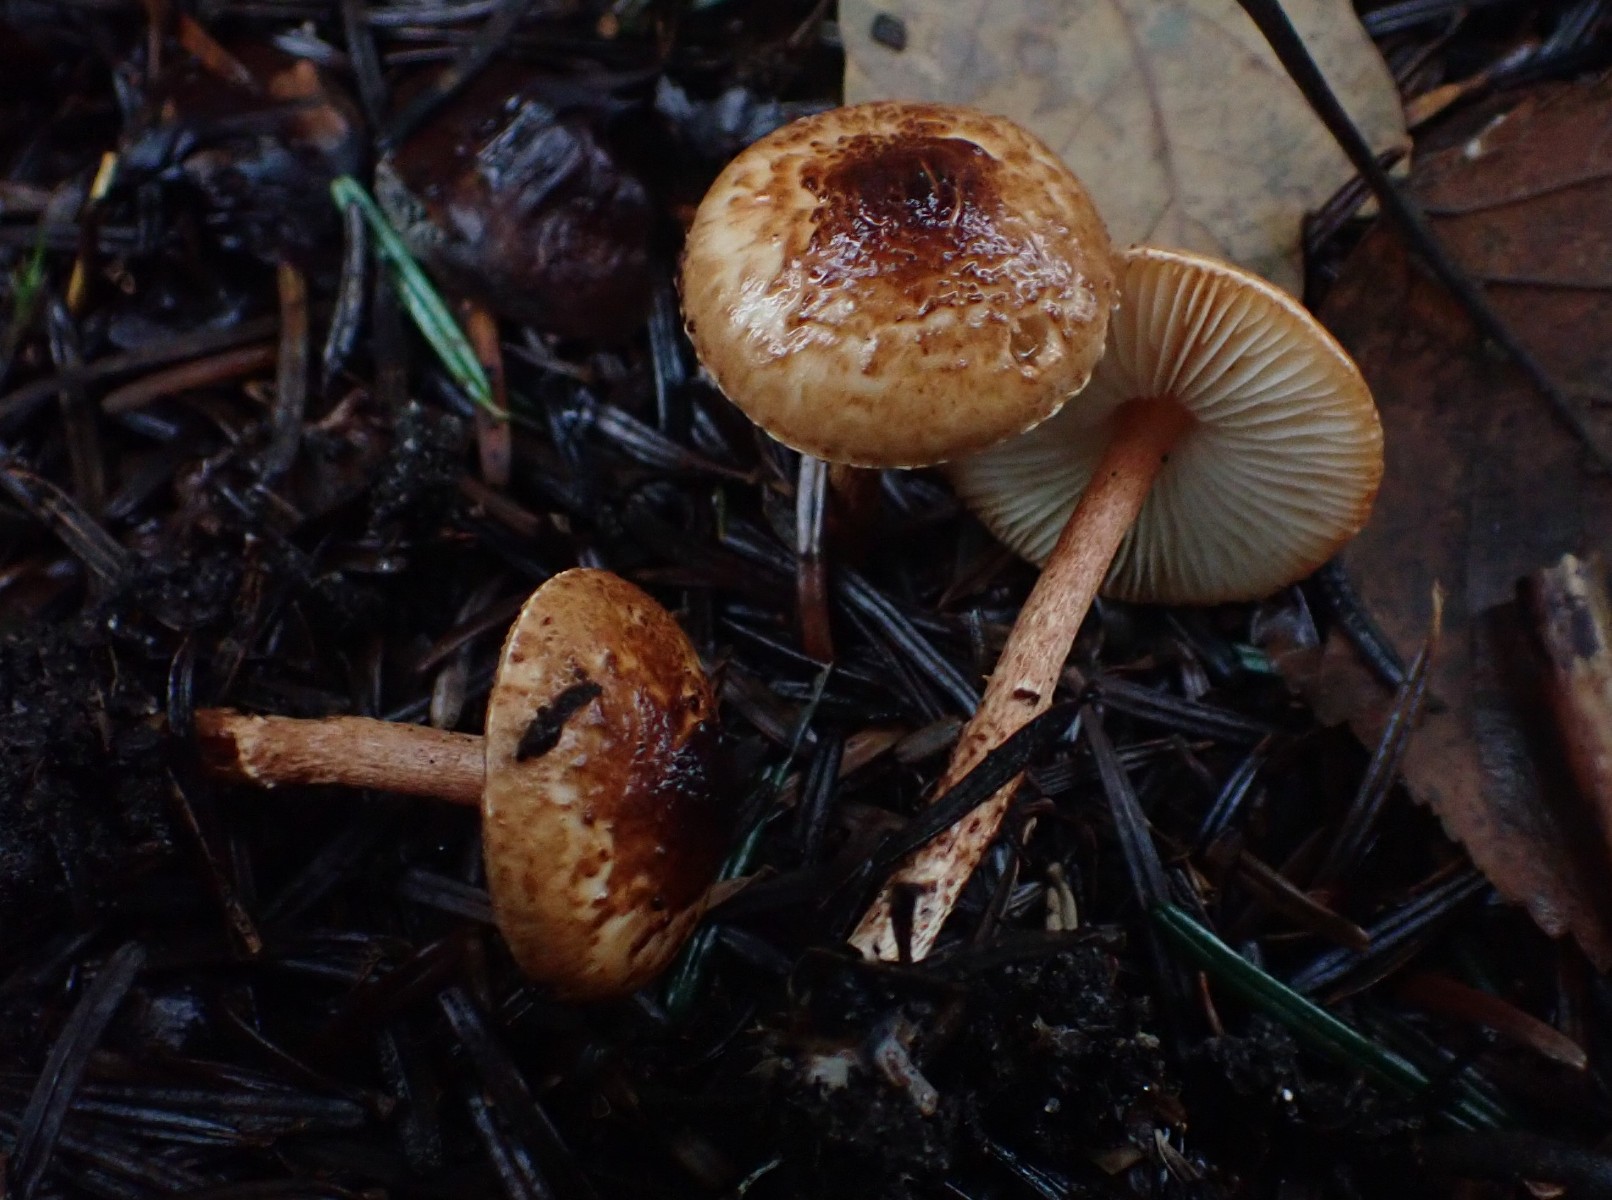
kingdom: Fungi
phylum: Basidiomycota
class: Agaricomycetes
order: Agaricales
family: Agaricaceae
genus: Lepiota
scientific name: Lepiota castanea
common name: kastaniebrun parasolhat
